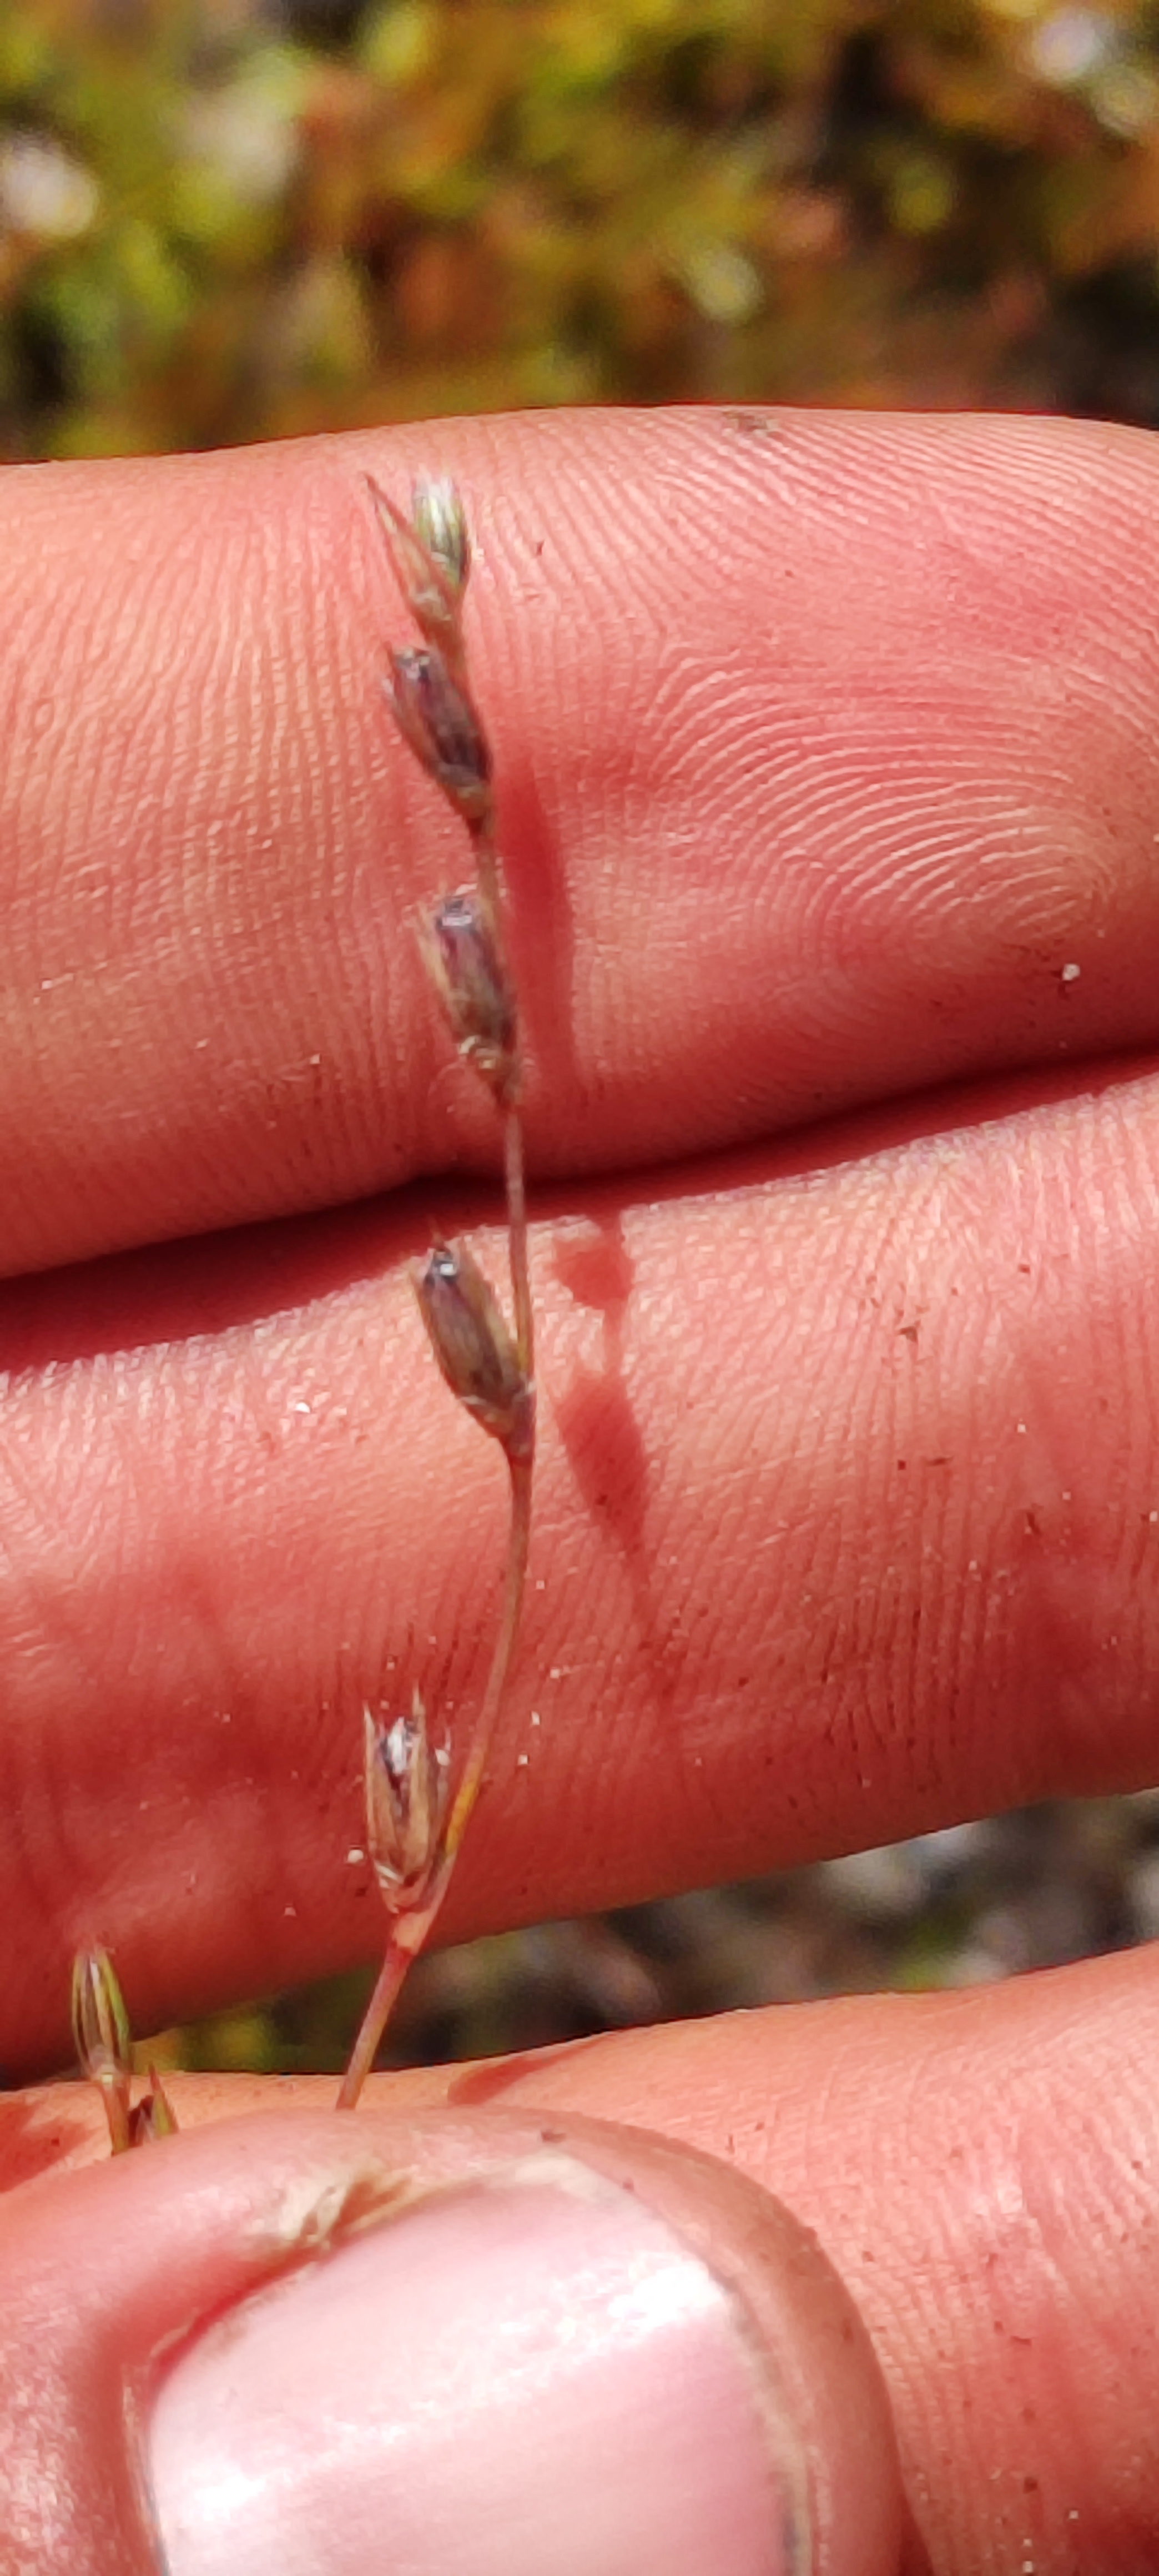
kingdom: Plantae
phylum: Tracheophyta
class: Liliopsida
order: Poales
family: Juncaceae
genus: Juncus
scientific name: Juncus bufonius
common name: Tudse-siv
